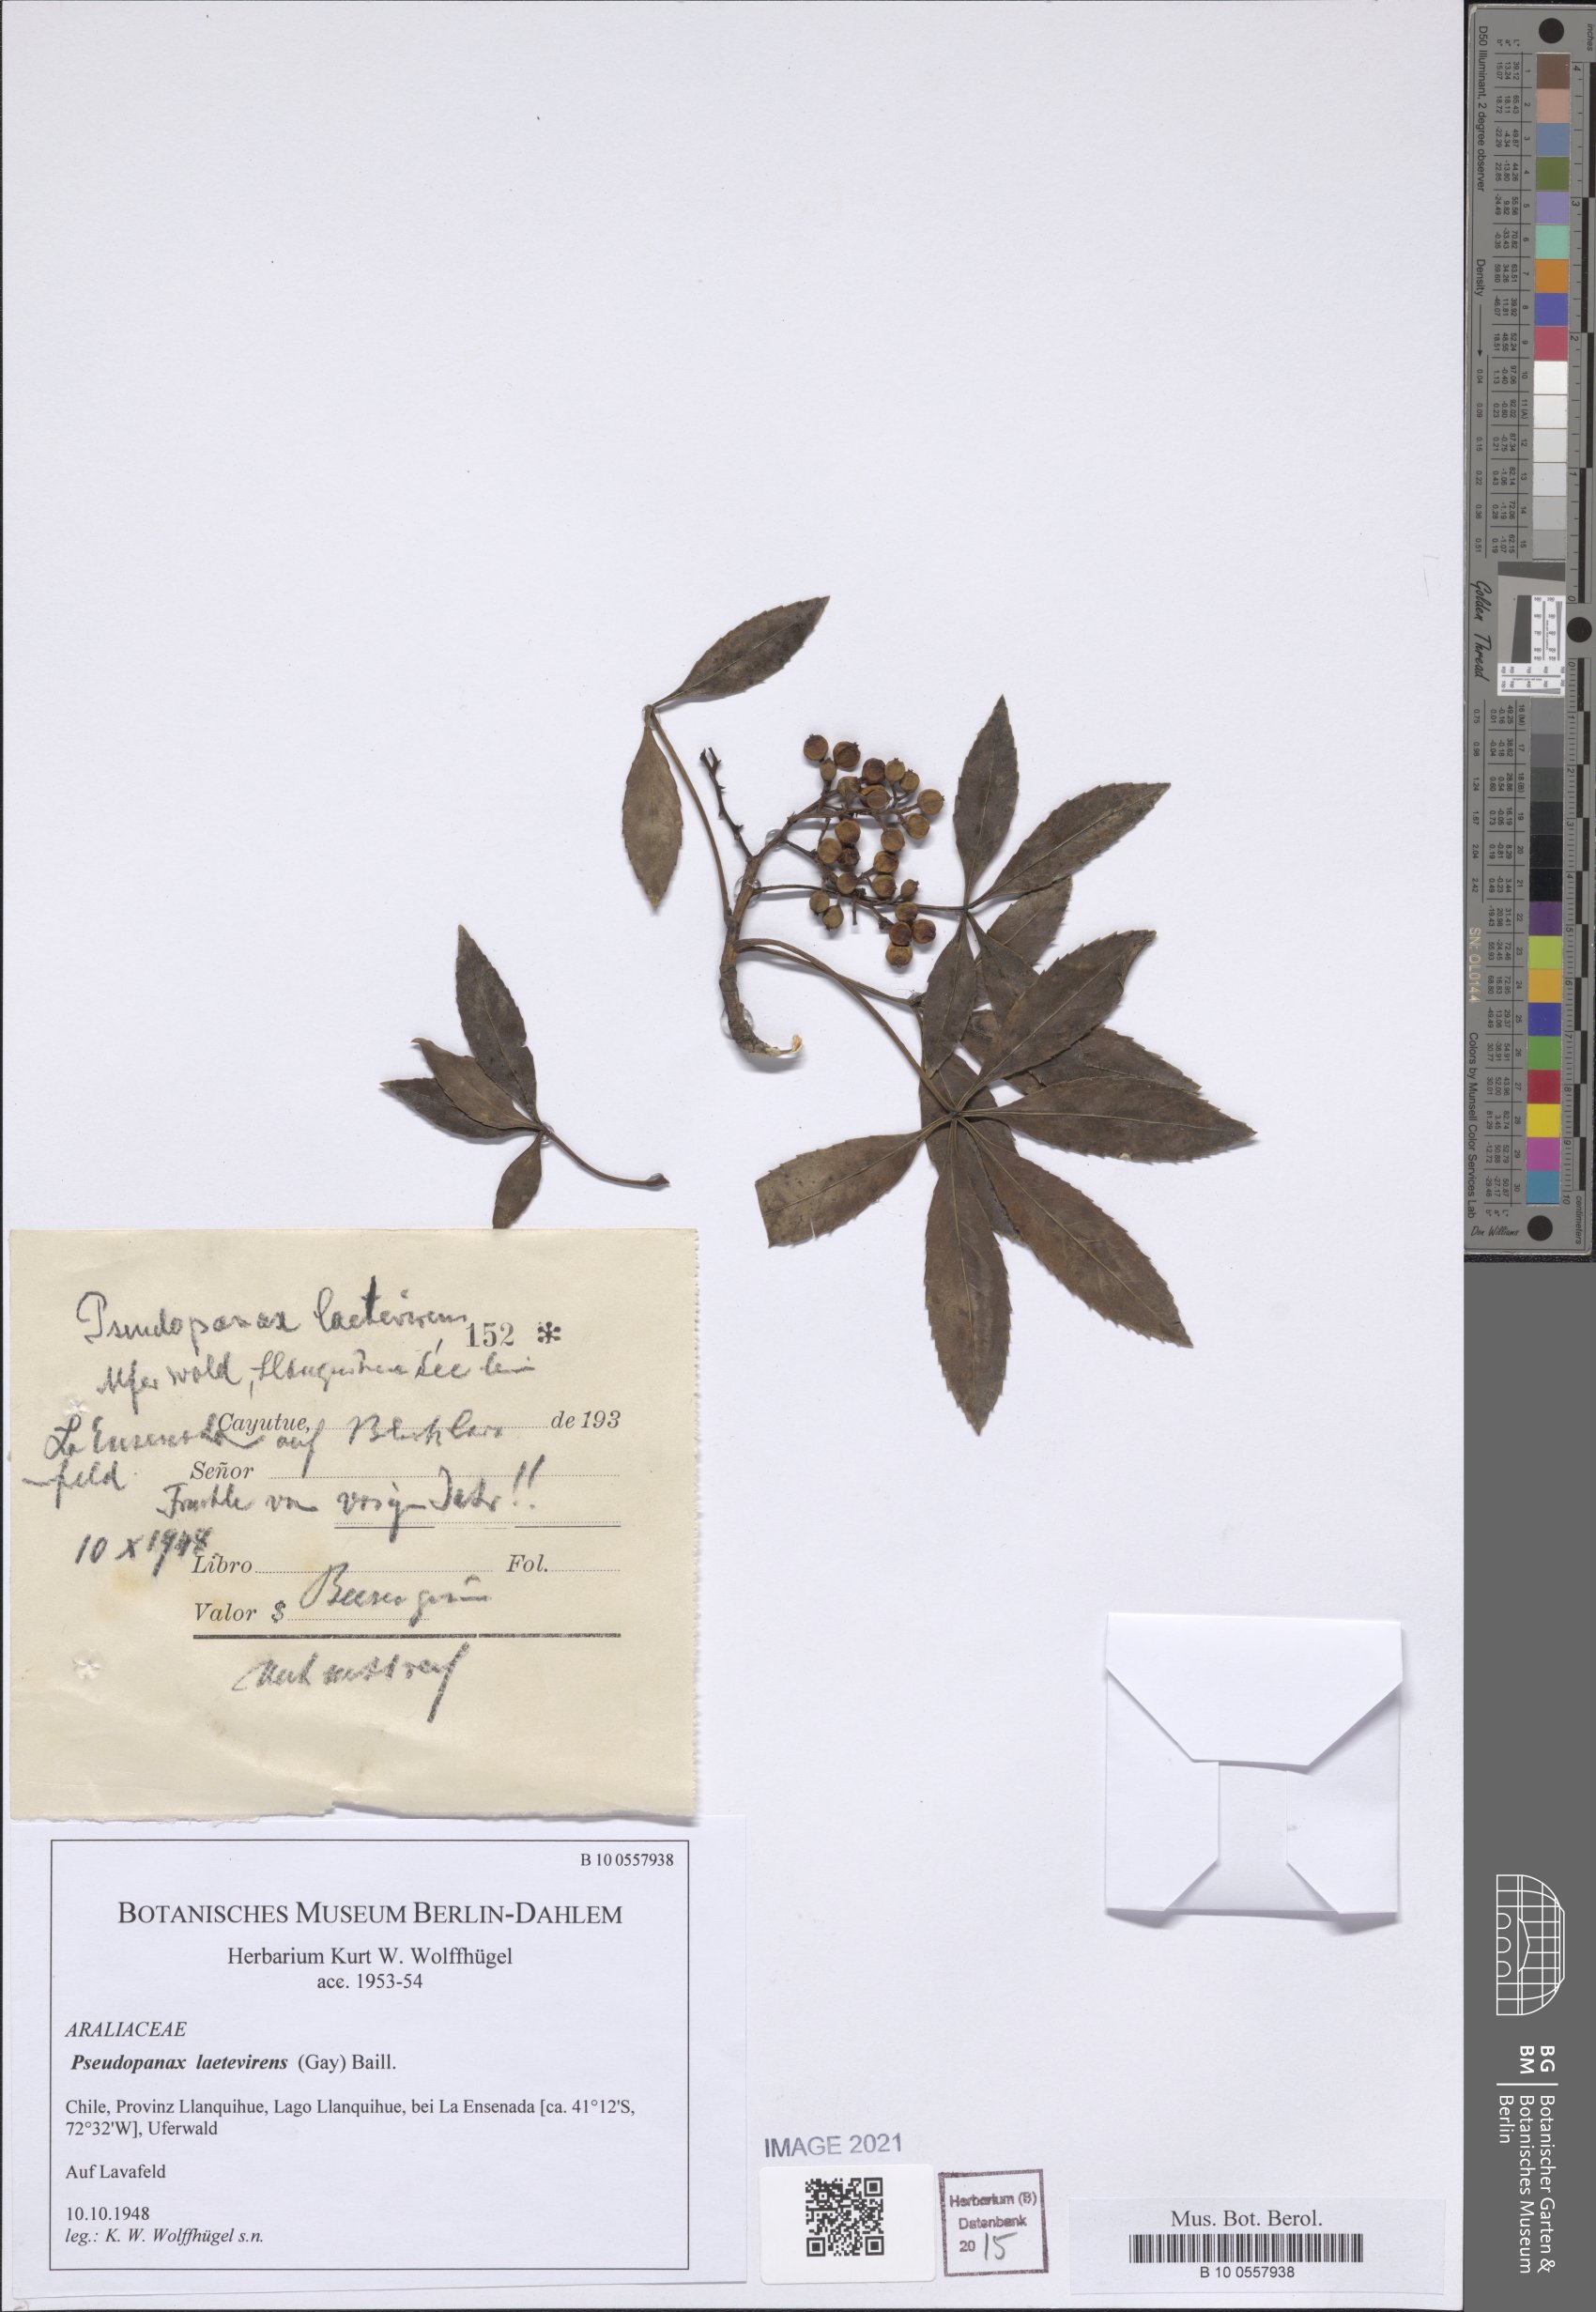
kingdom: Plantae
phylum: Tracheophyta
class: Magnoliopsida
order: Apiales
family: Araliaceae
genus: Raukaua
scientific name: Raukaua laetevirens
